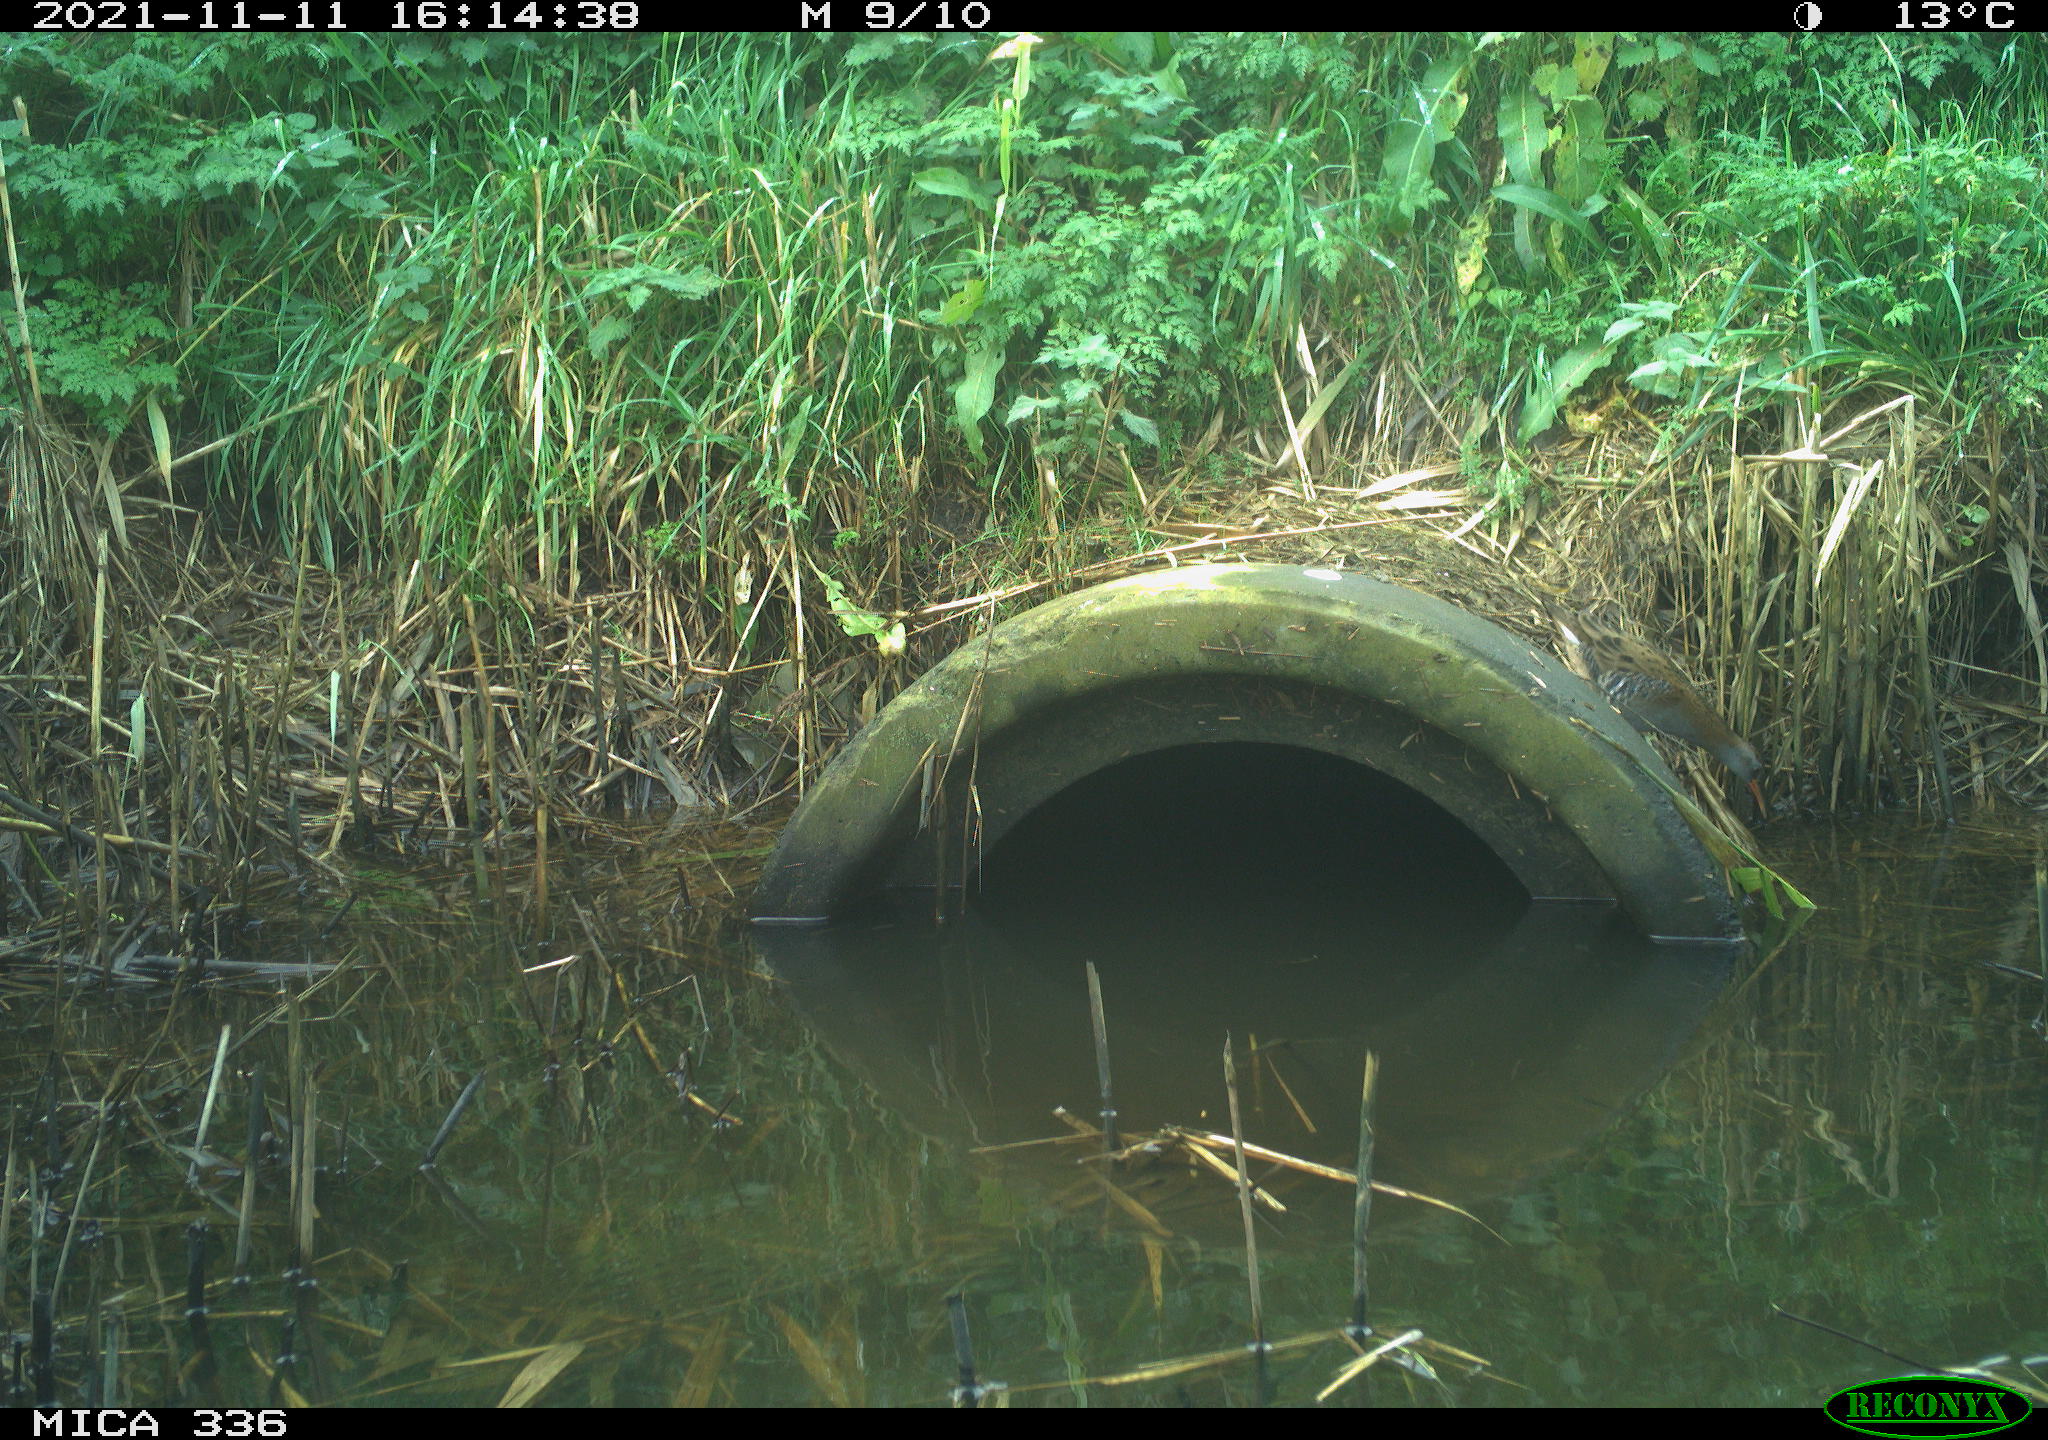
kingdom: Animalia
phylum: Chordata
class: Aves
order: Gruiformes
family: Rallidae
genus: Gallinula
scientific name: Gallinula chloropus
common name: Common moorhen
